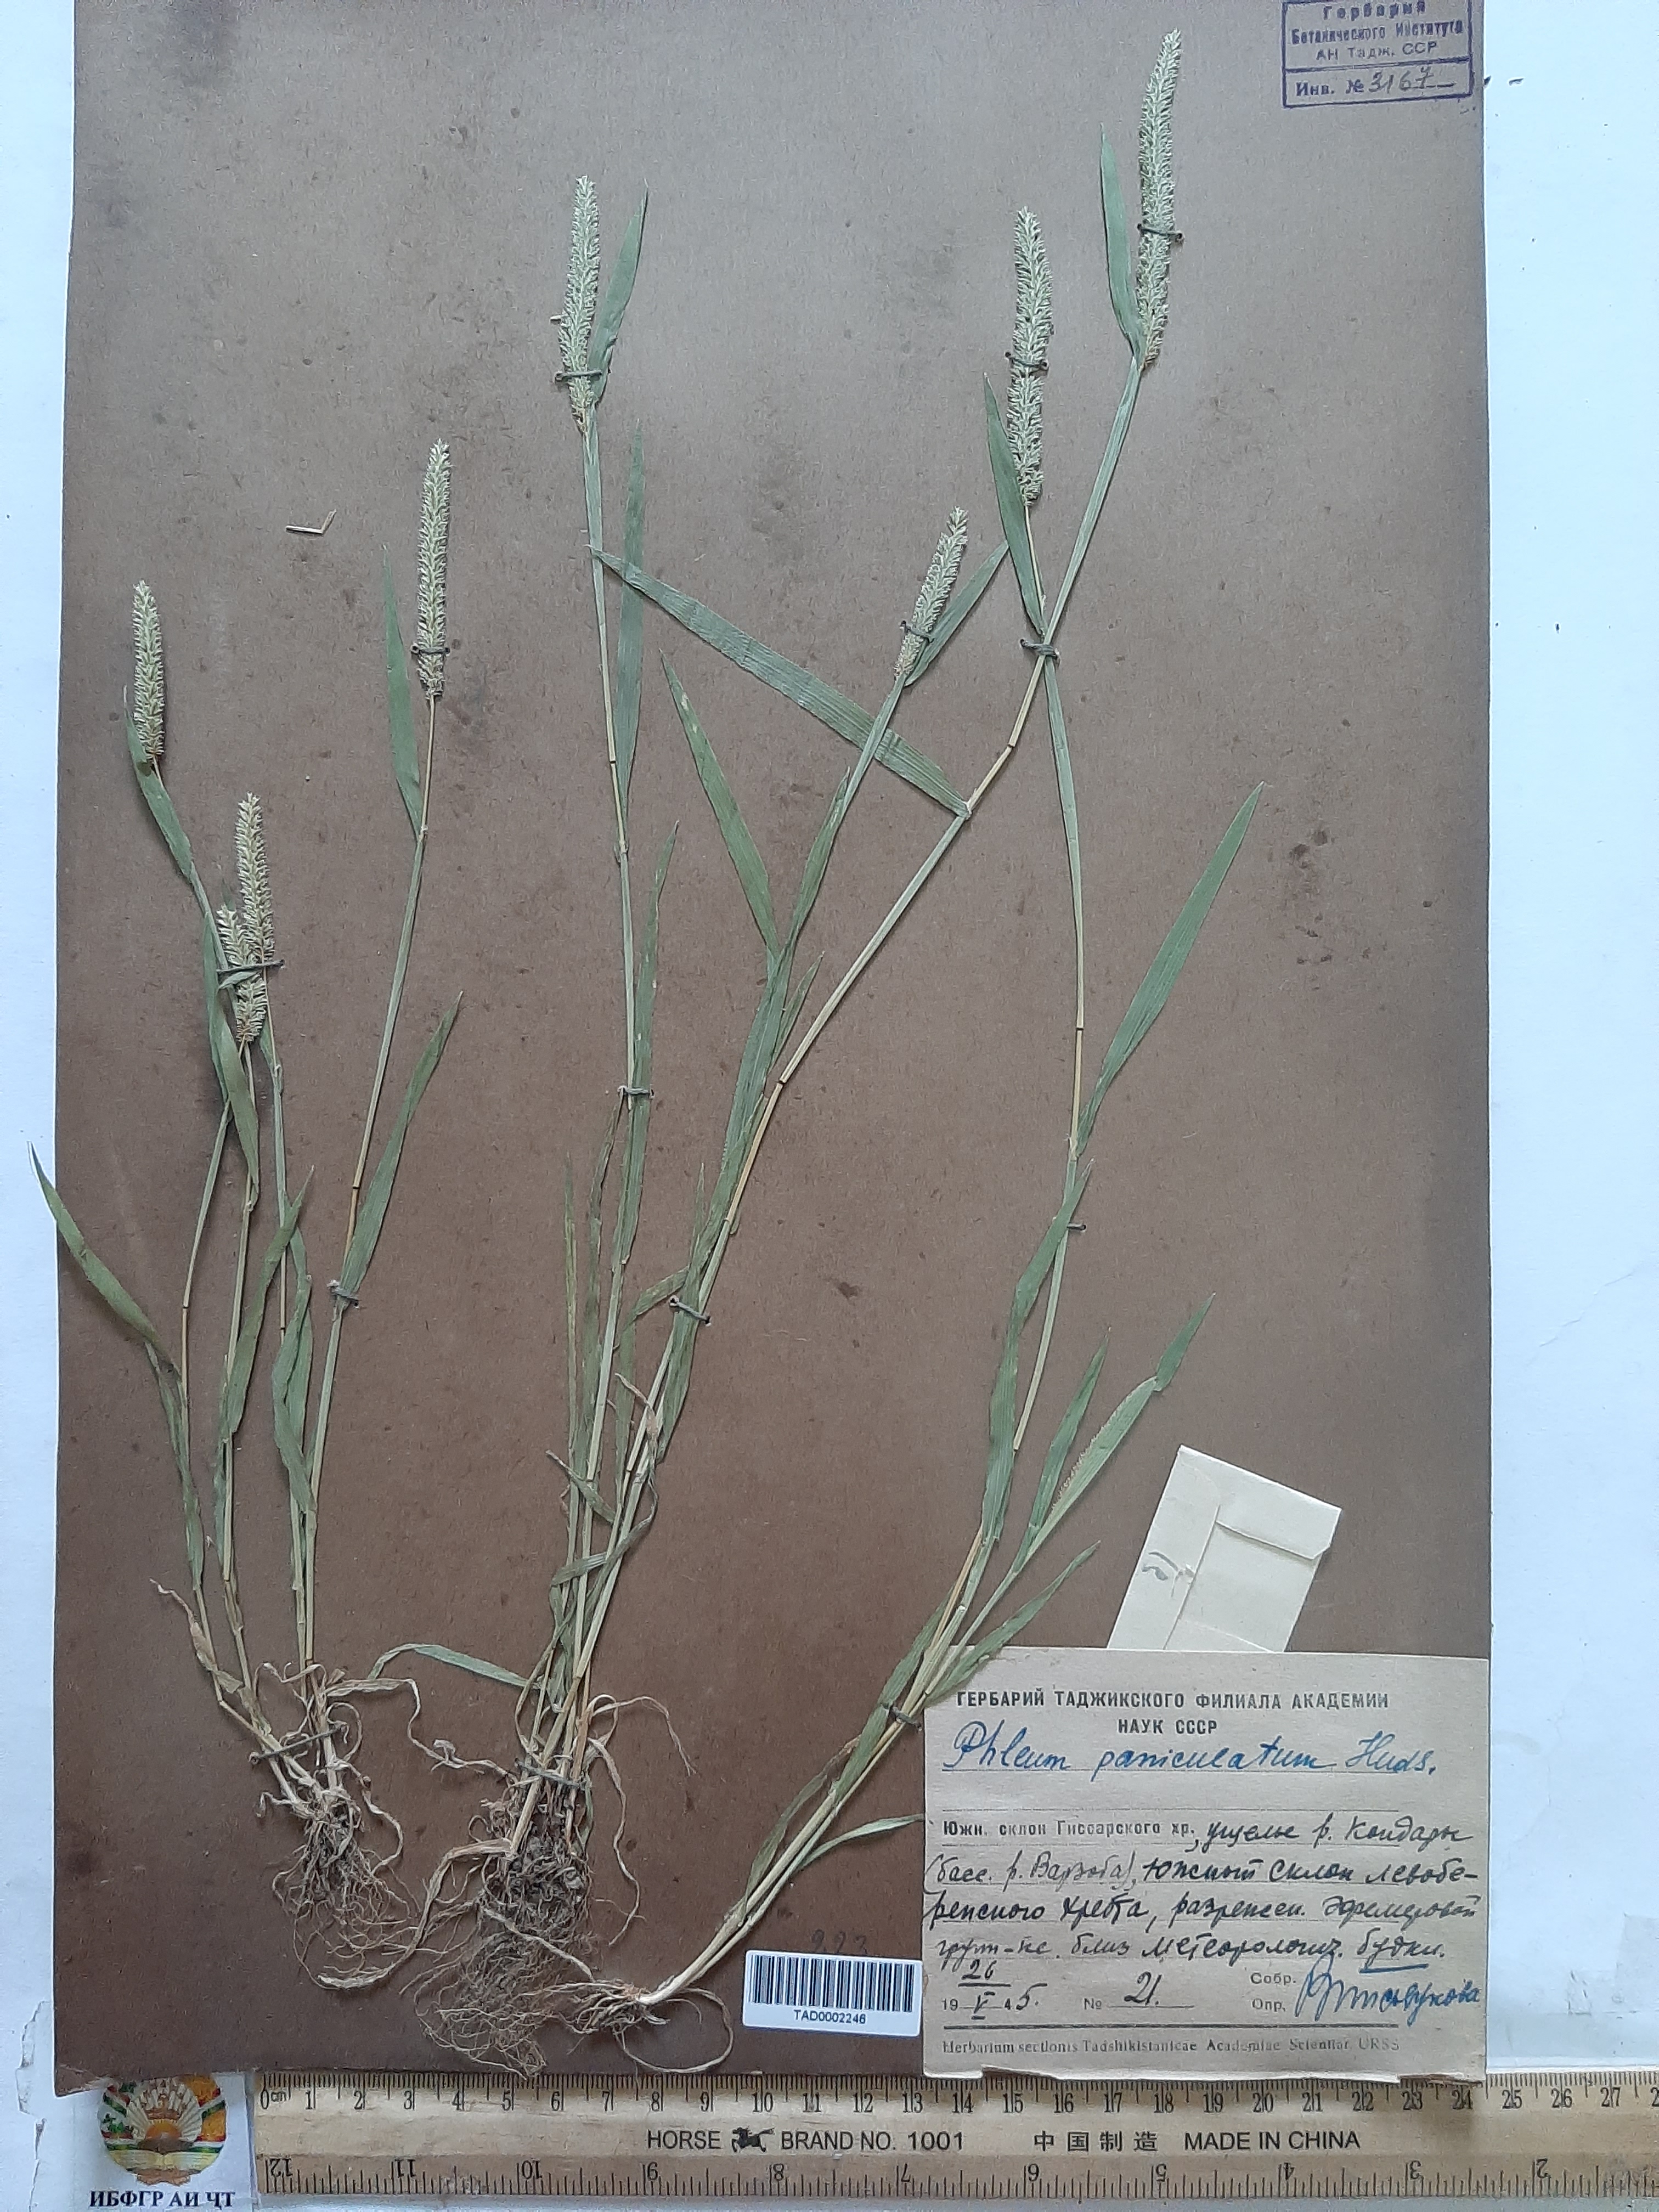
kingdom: Plantae
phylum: Tracheophyta
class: Liliopsida
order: Poales
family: Poaceae
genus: Phleum
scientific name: Phleum paniculatum
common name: British timothy
